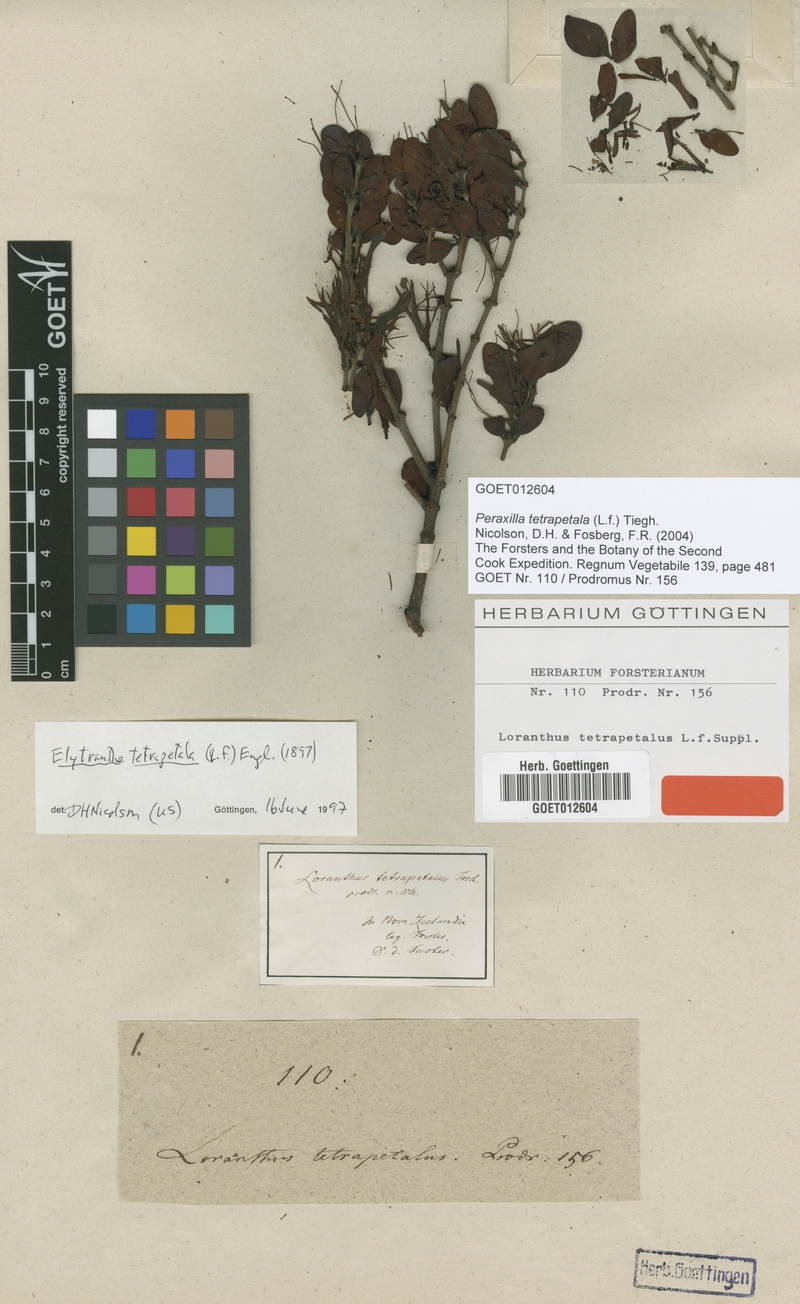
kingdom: Plantae
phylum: Tracheophyta
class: Magnoliopsida
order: Santalales
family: Loranthaceae
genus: Peraxilla
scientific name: Peraxilla tetrapetala
